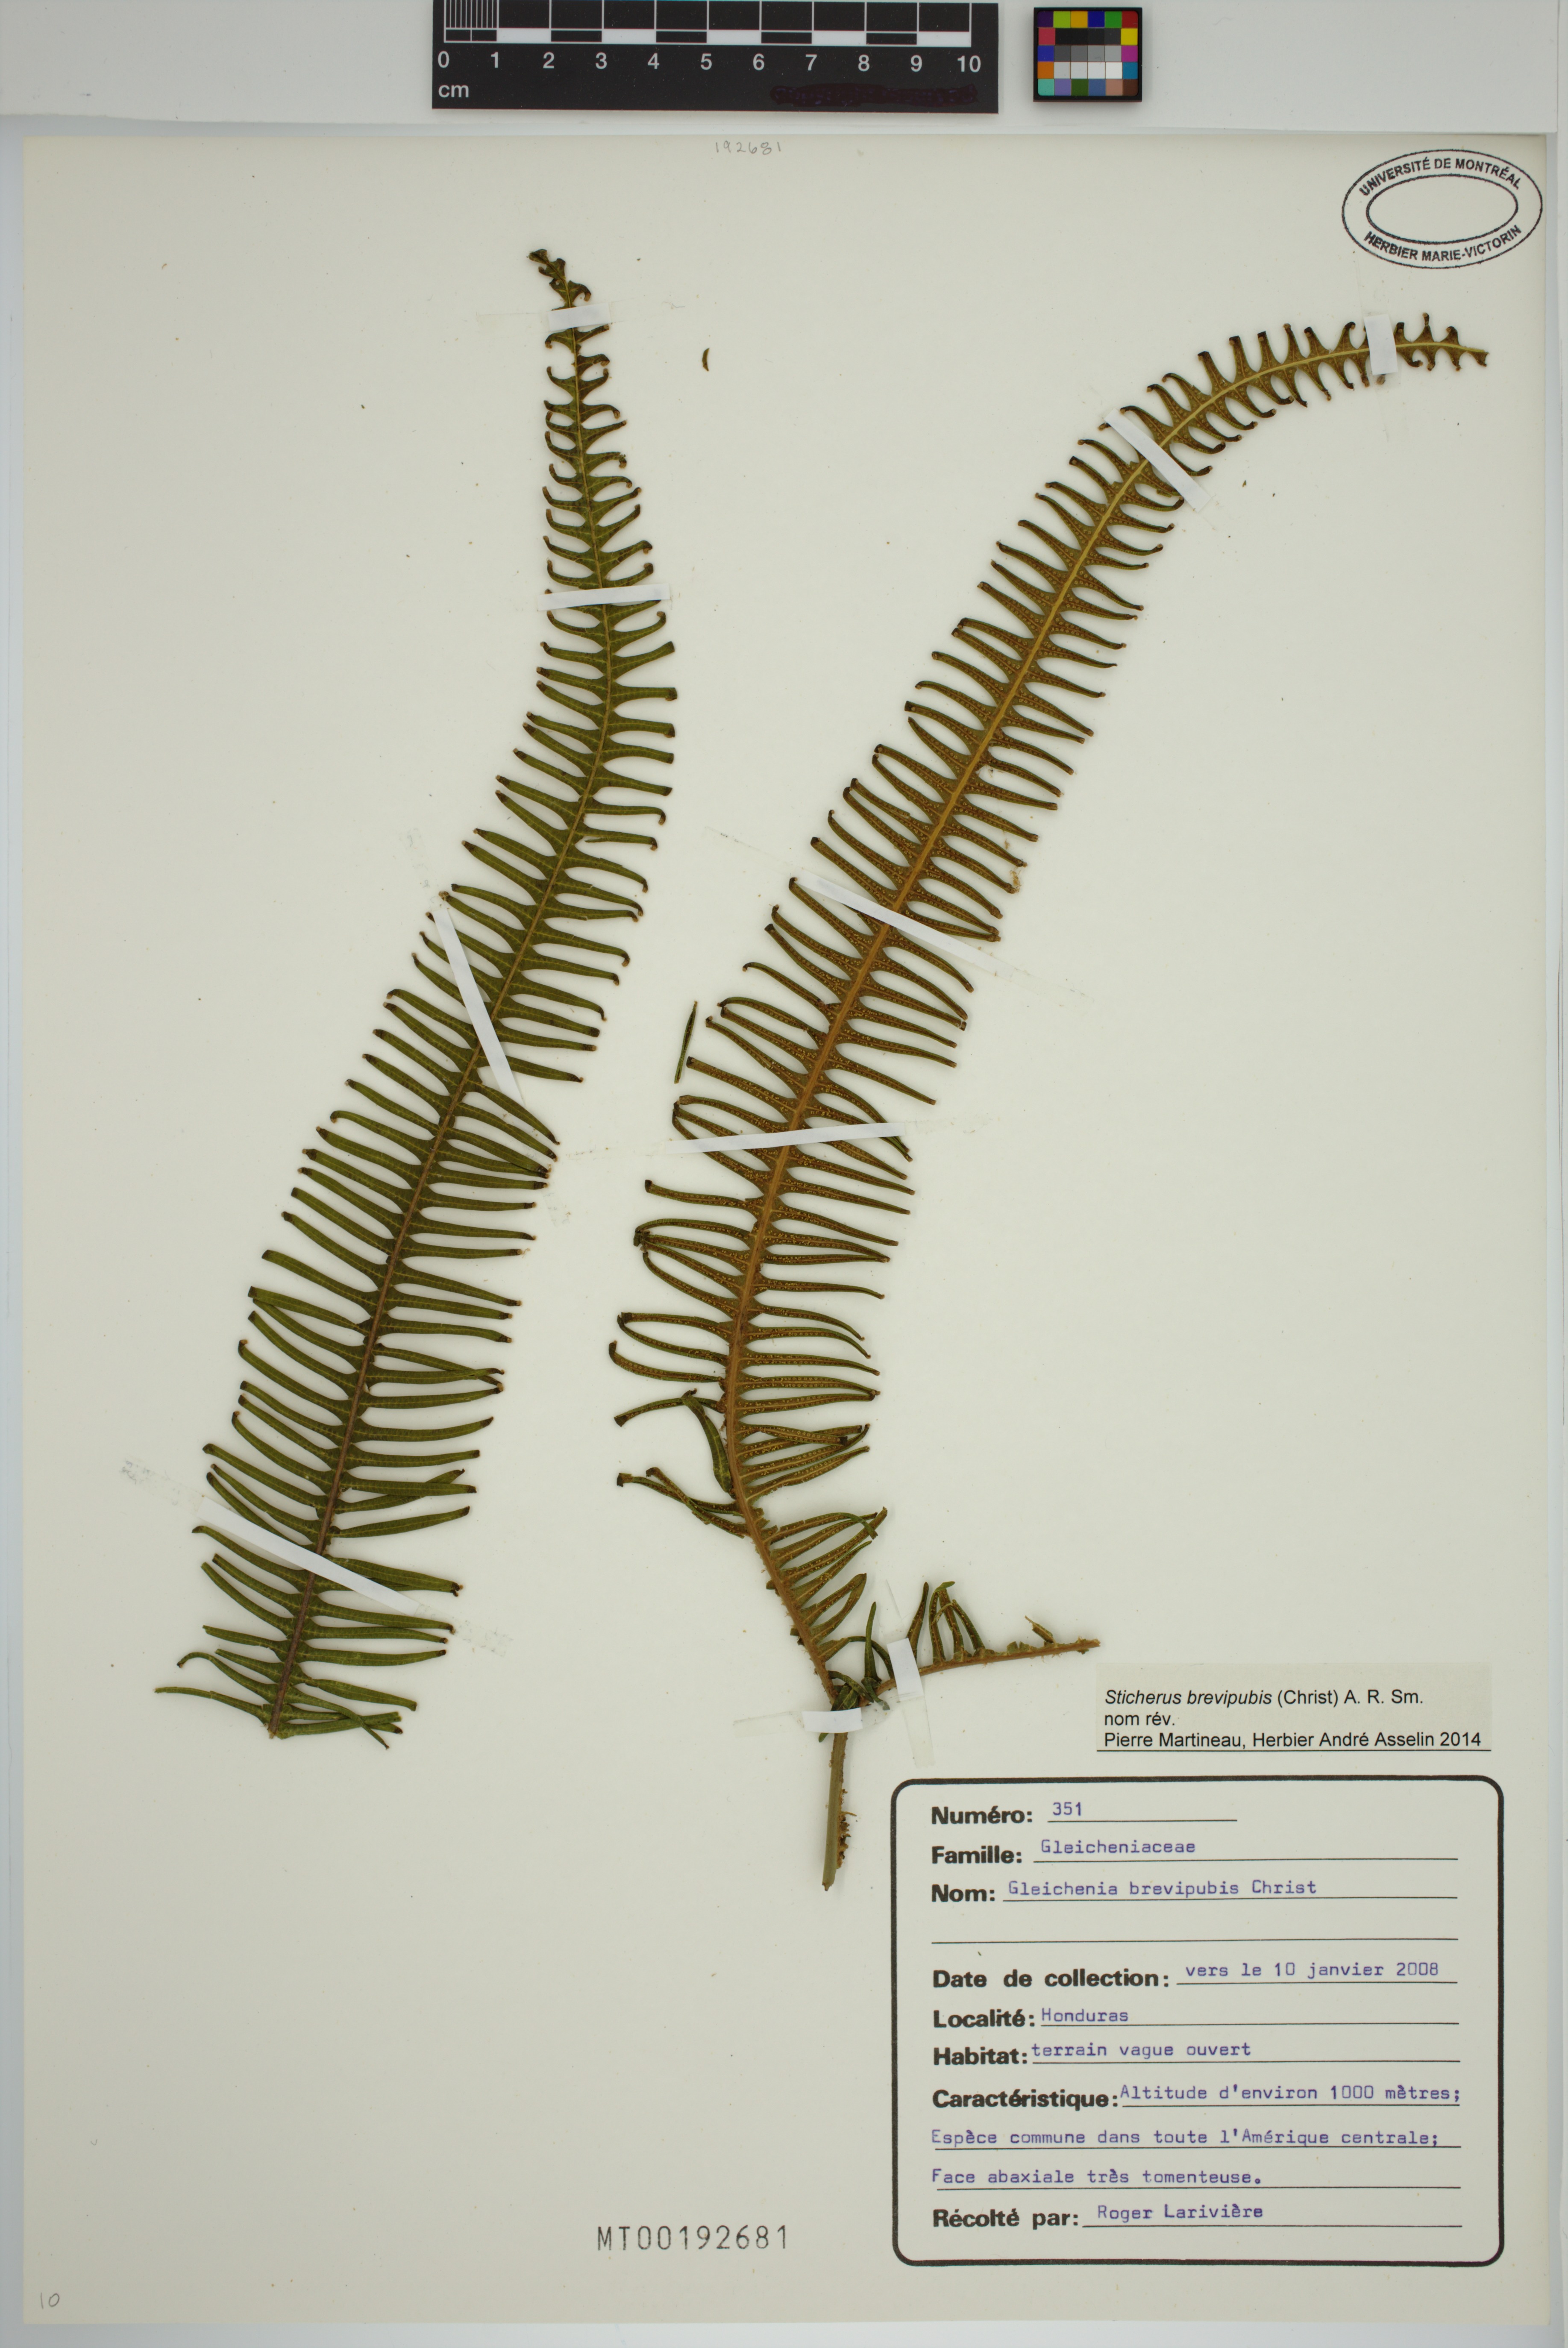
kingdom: Plantae
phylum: Tracheophyta
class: Polypodiopsida
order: Gleicheniales
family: Gleicheniaceae
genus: Sticherus
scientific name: Sticherus fulvus
